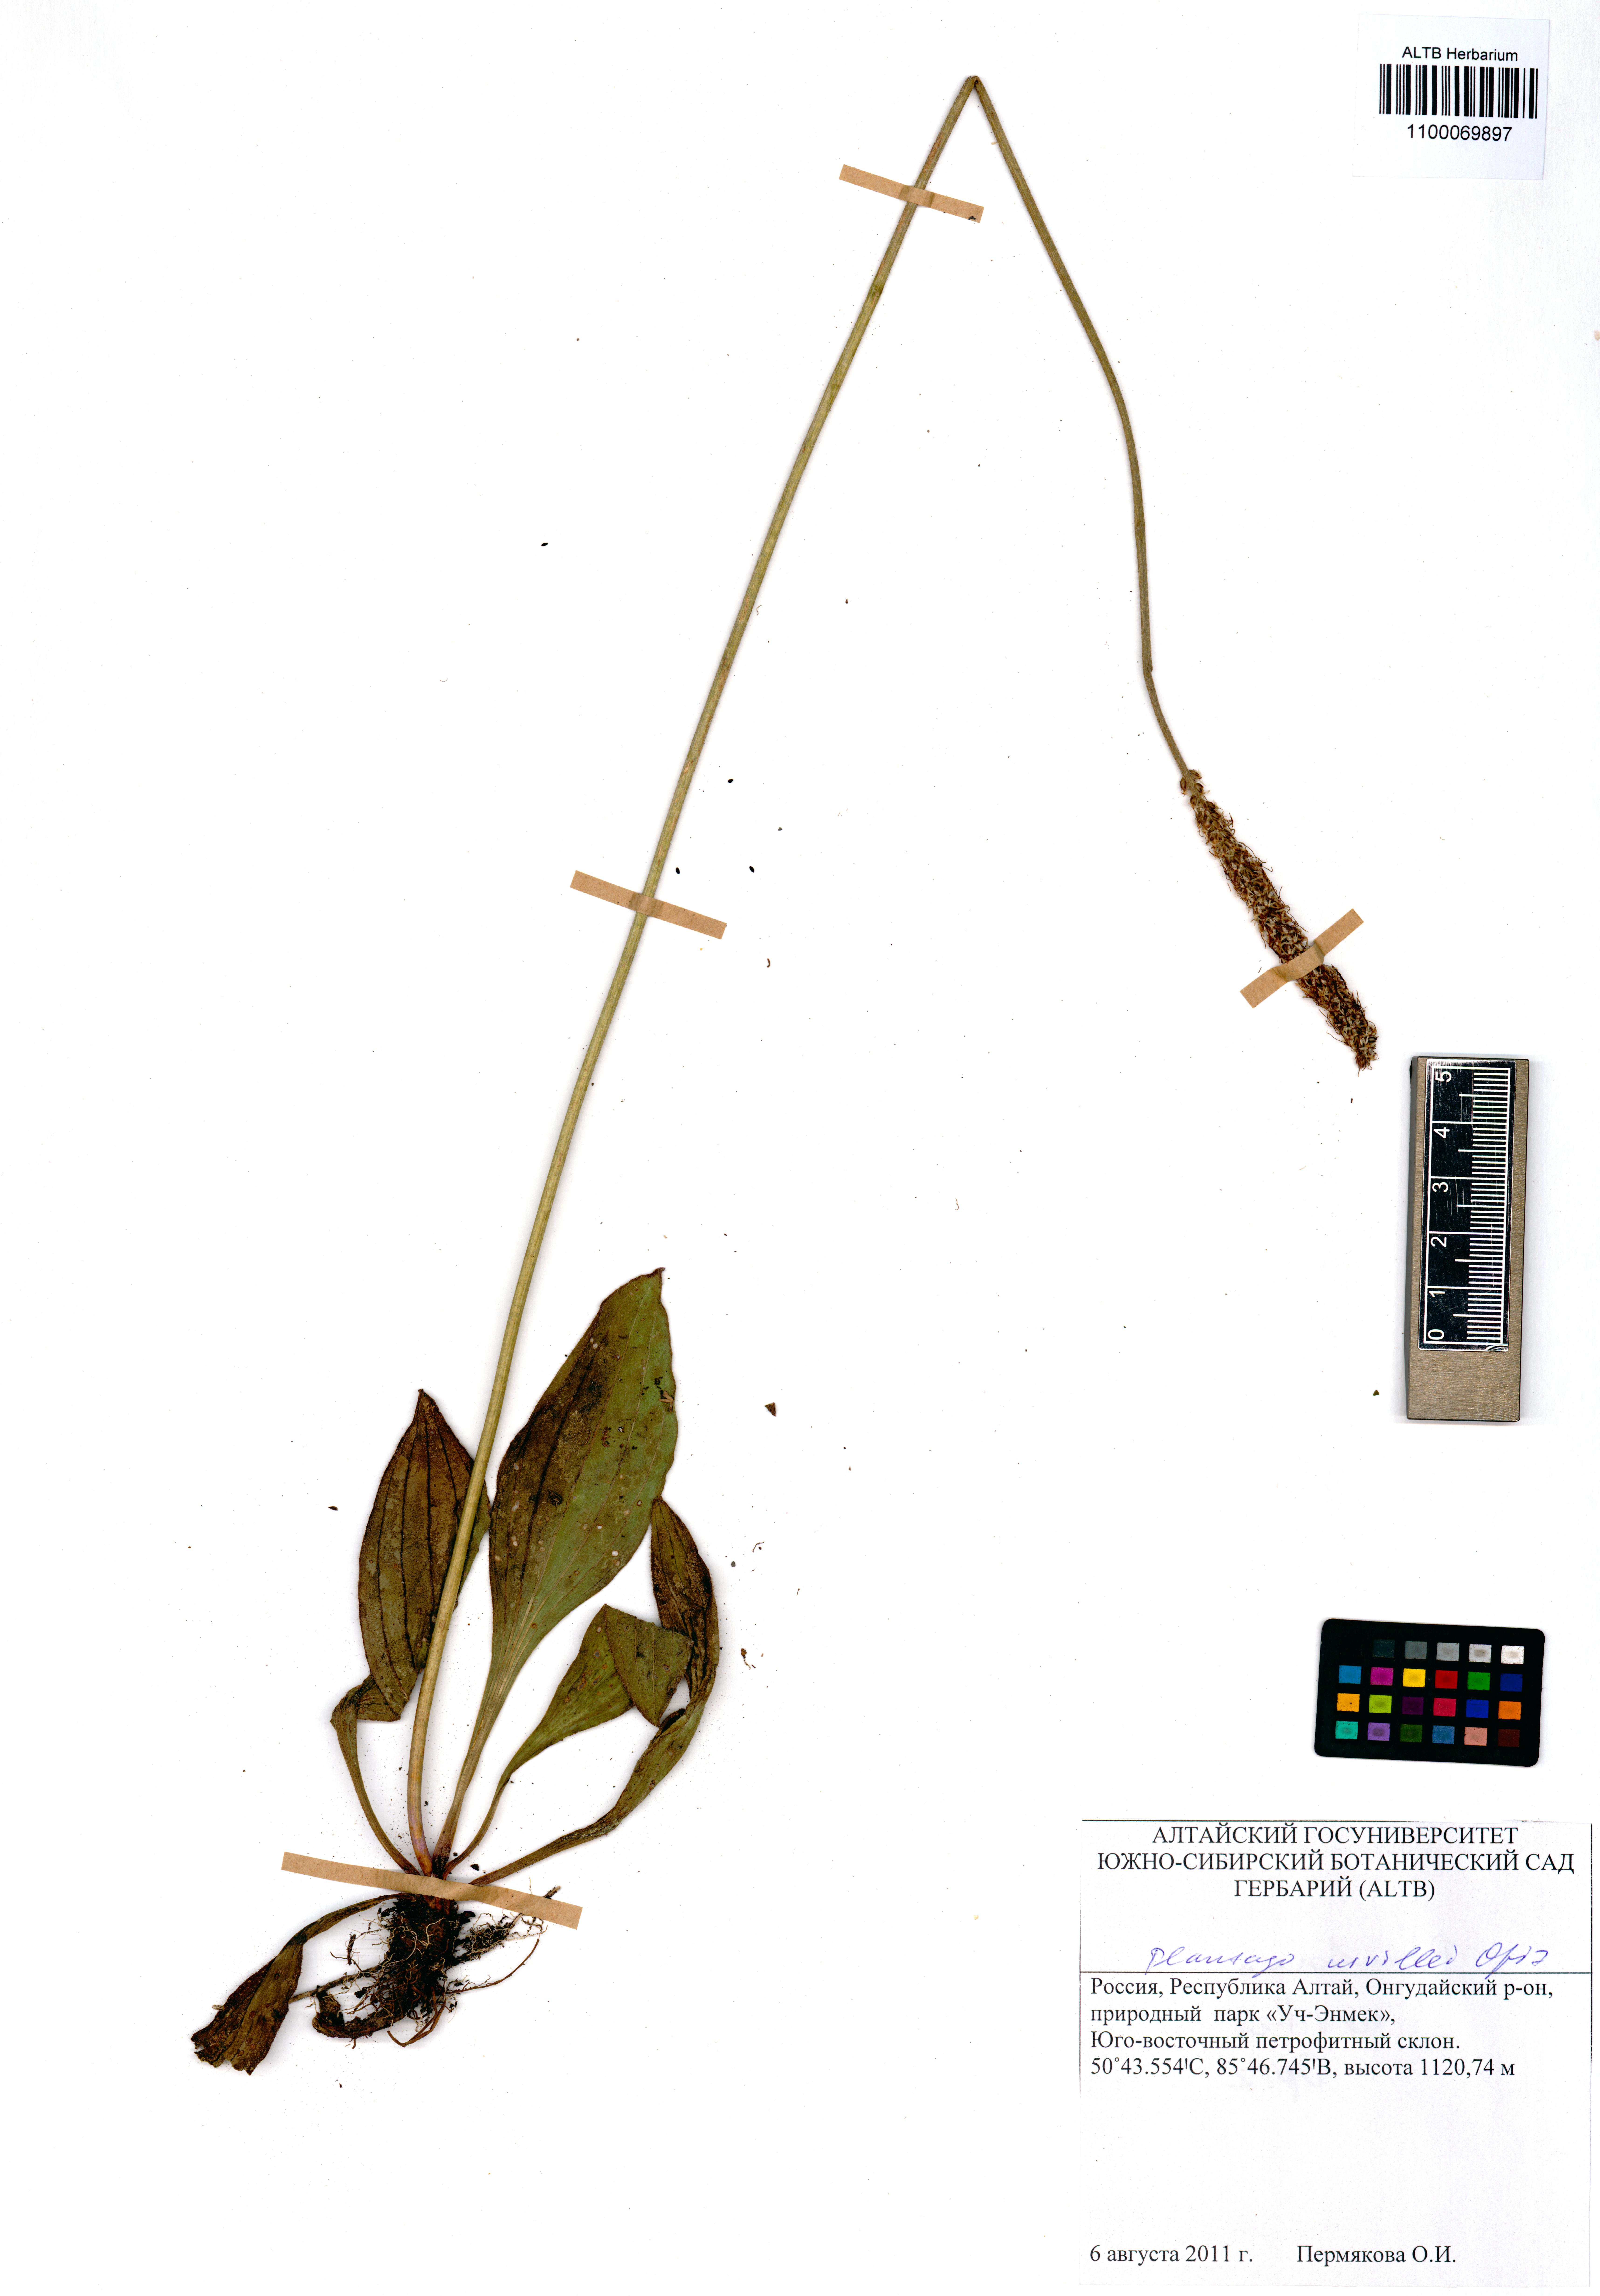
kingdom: Plantae
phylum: Tracheophyta
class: Magnoliopsida
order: Lamiales
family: Plantaginaceae
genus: Plantago
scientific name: Plantago urvillei
